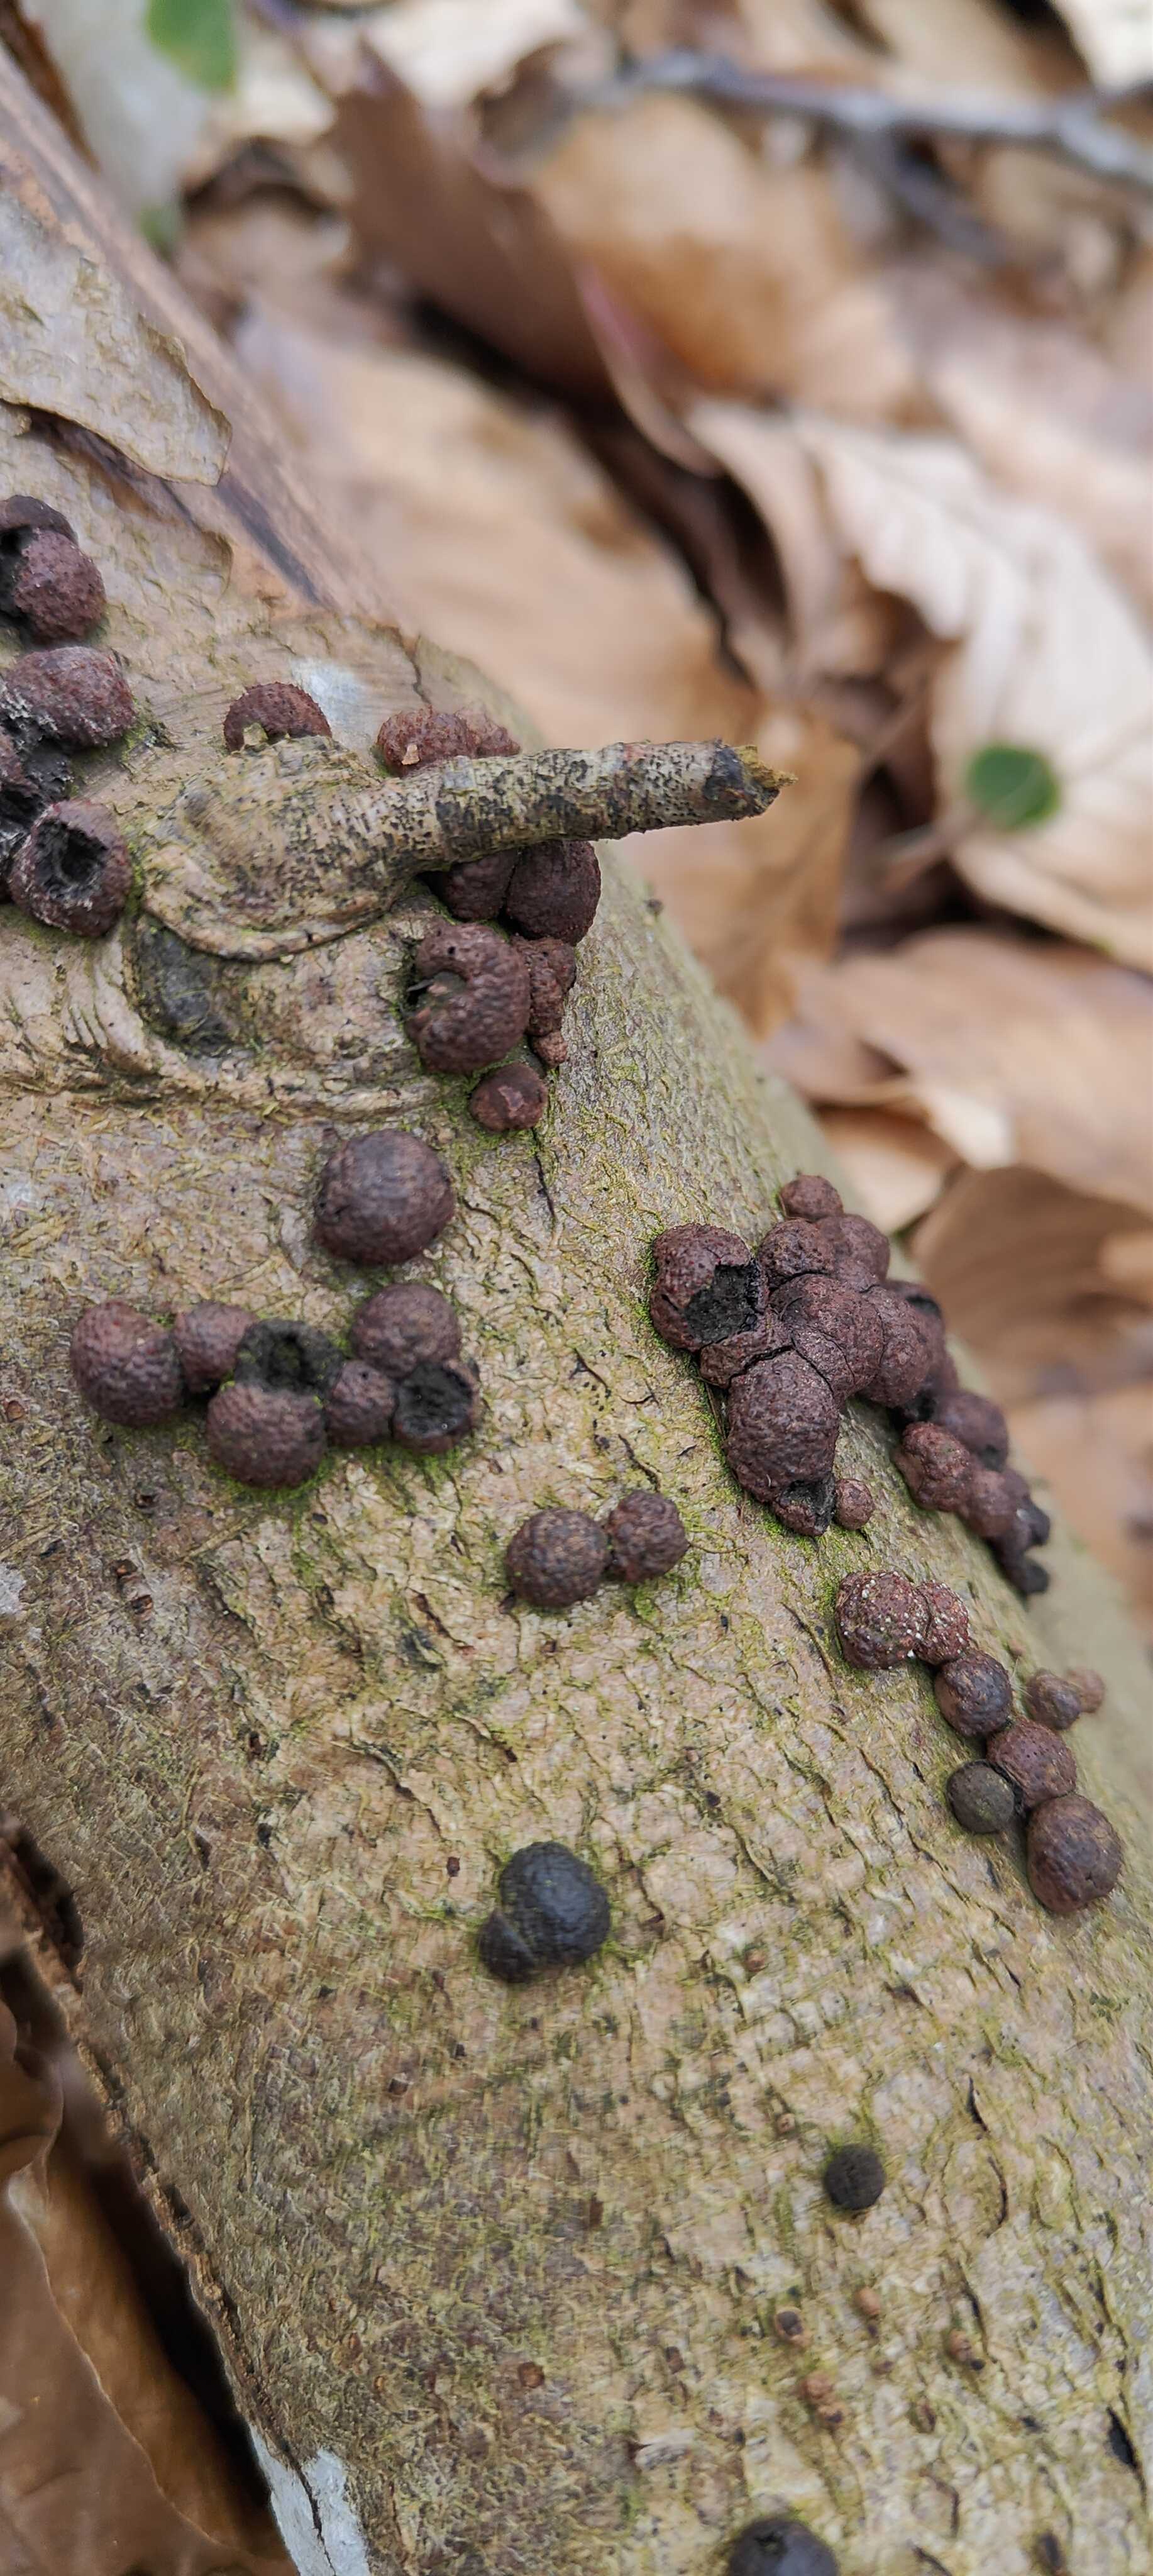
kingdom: Fungi
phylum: Ascomycota
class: Sordariomycetes
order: Xylariales
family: Hypoxylaceae
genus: Hypoxylon
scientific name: Hypoxylon fragiforme
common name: kuljordbær
